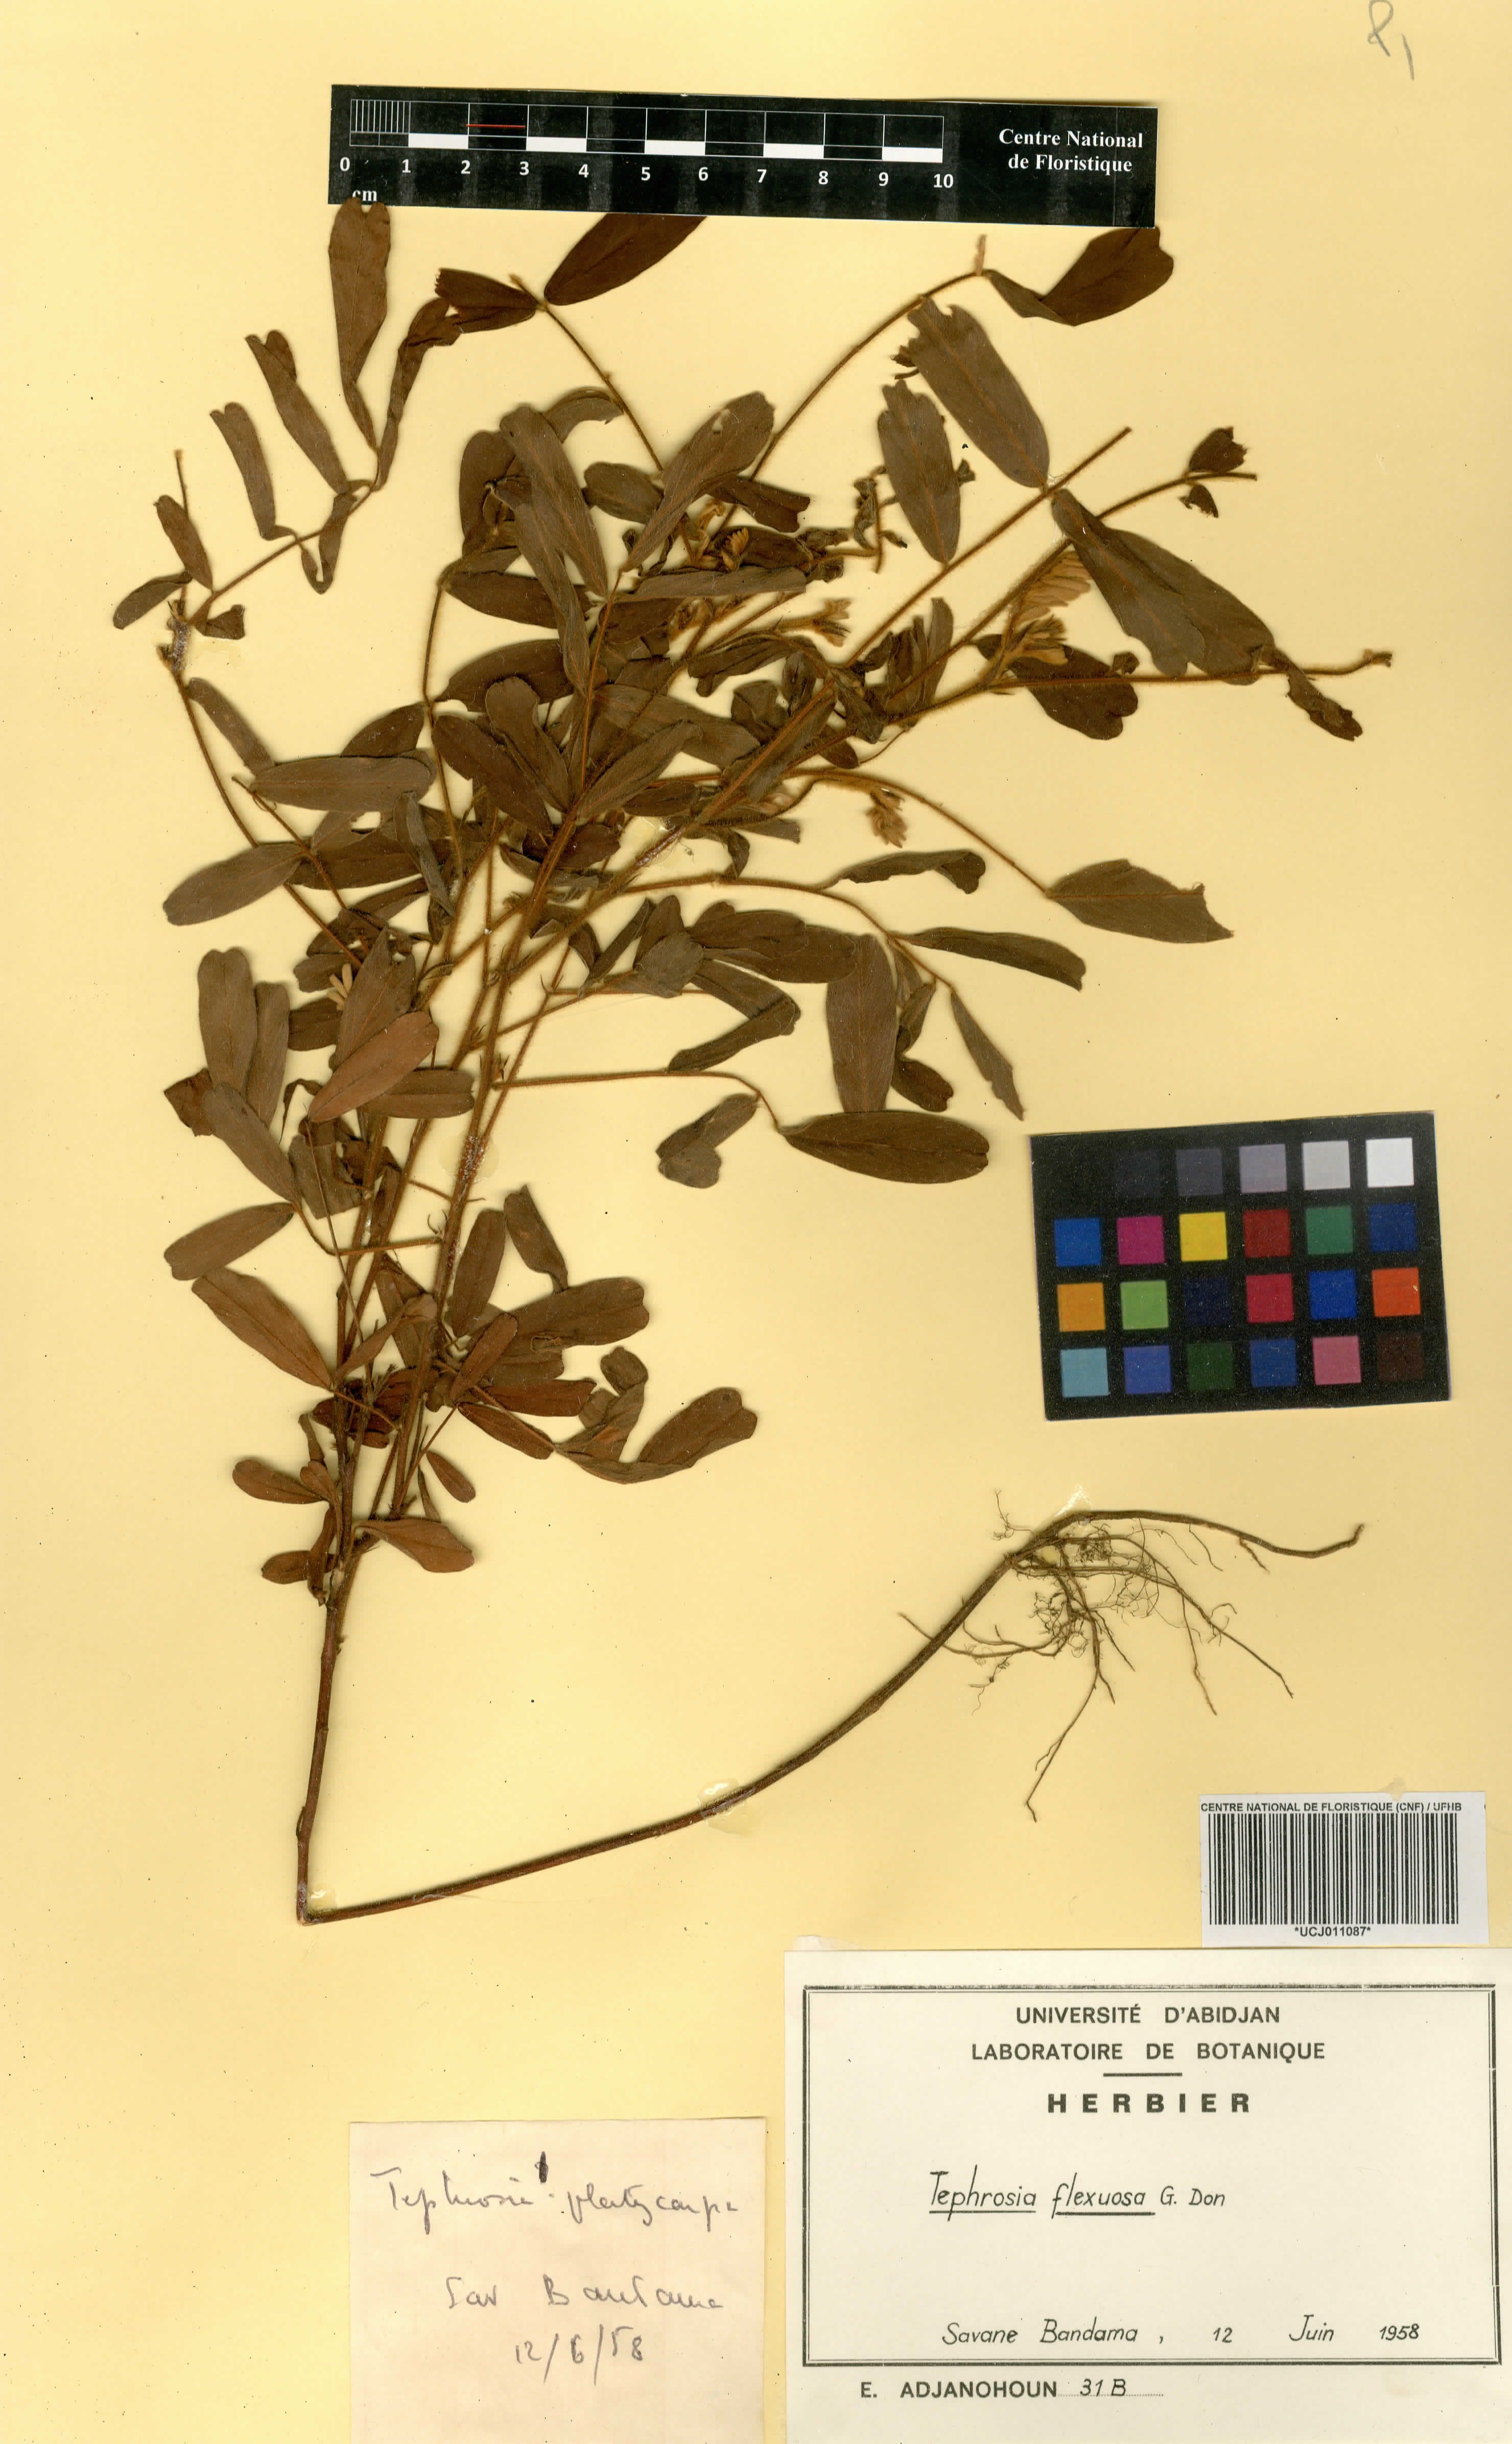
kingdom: Plantae
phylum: Tracheophyta
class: Magnoliopsida
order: Fabales
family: Fabaceae
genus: Tephrosia
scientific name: Tephrosia flexuosa
